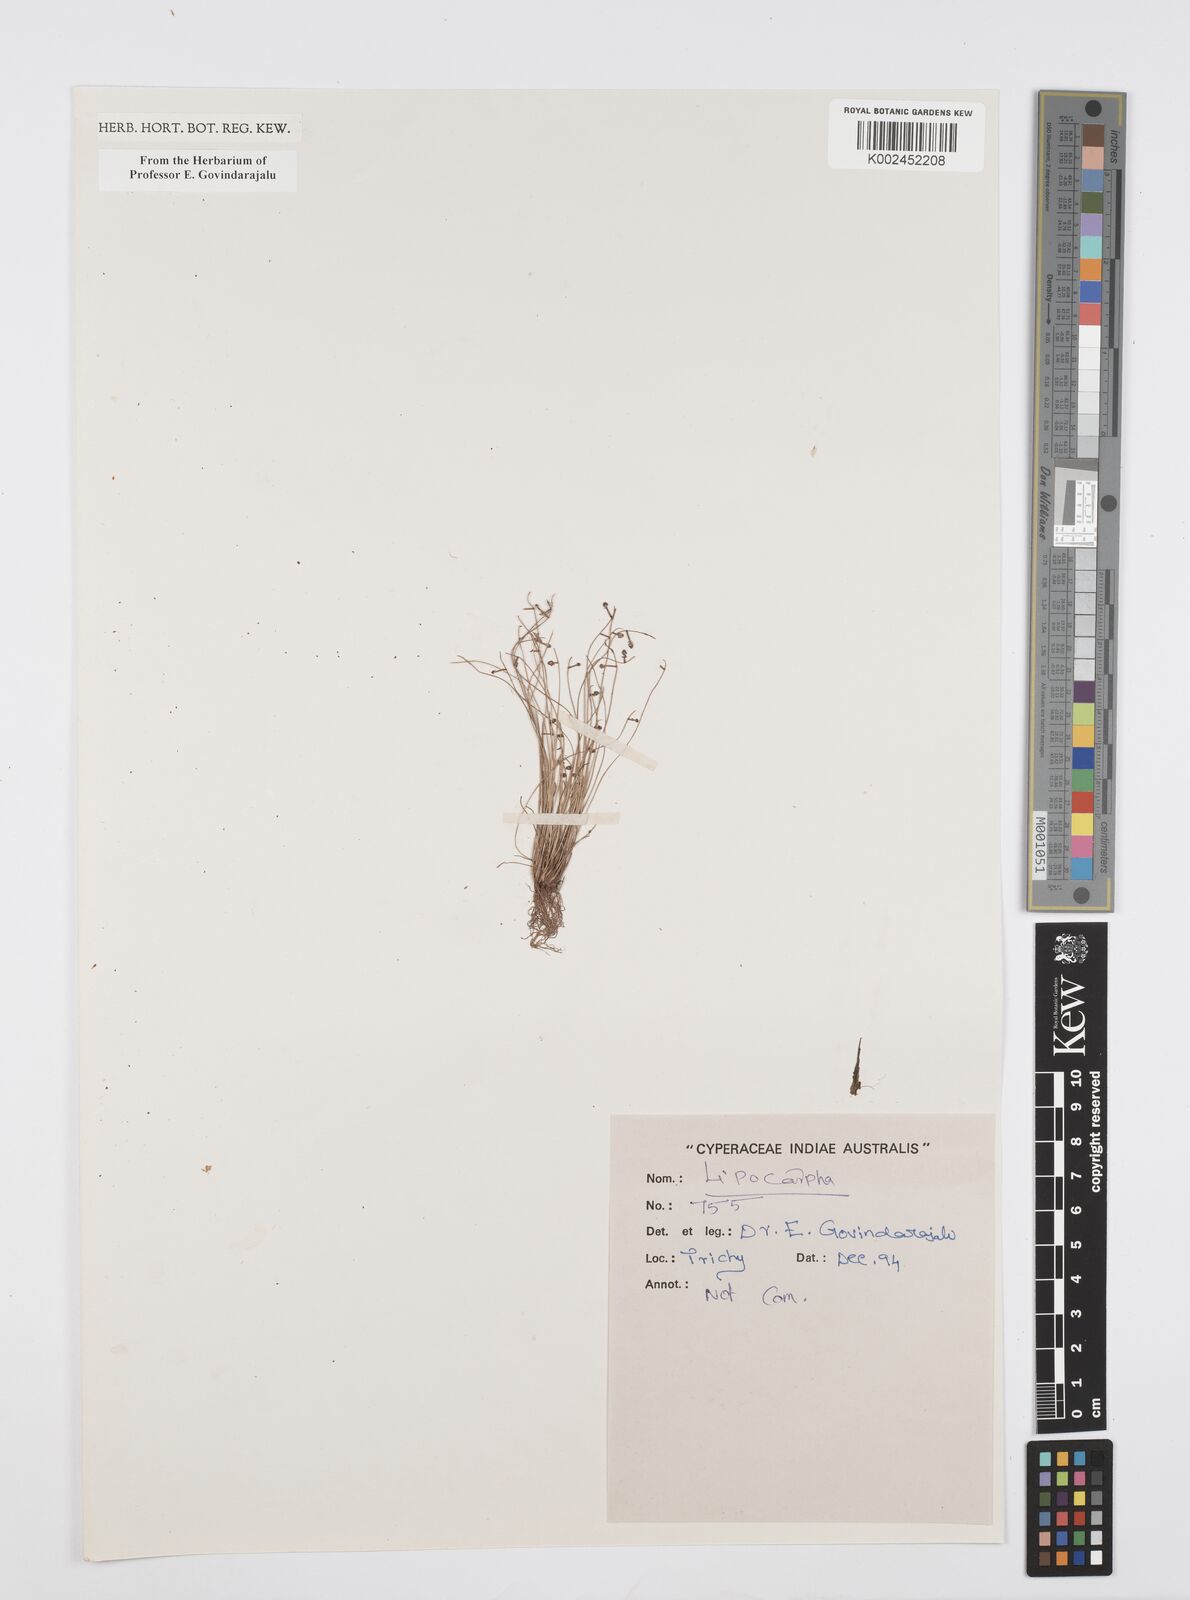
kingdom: Plantae
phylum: Tracheophyta
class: Liliopsida
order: Poales
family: Cyperaceae
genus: Cyperus
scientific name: Cyperus
